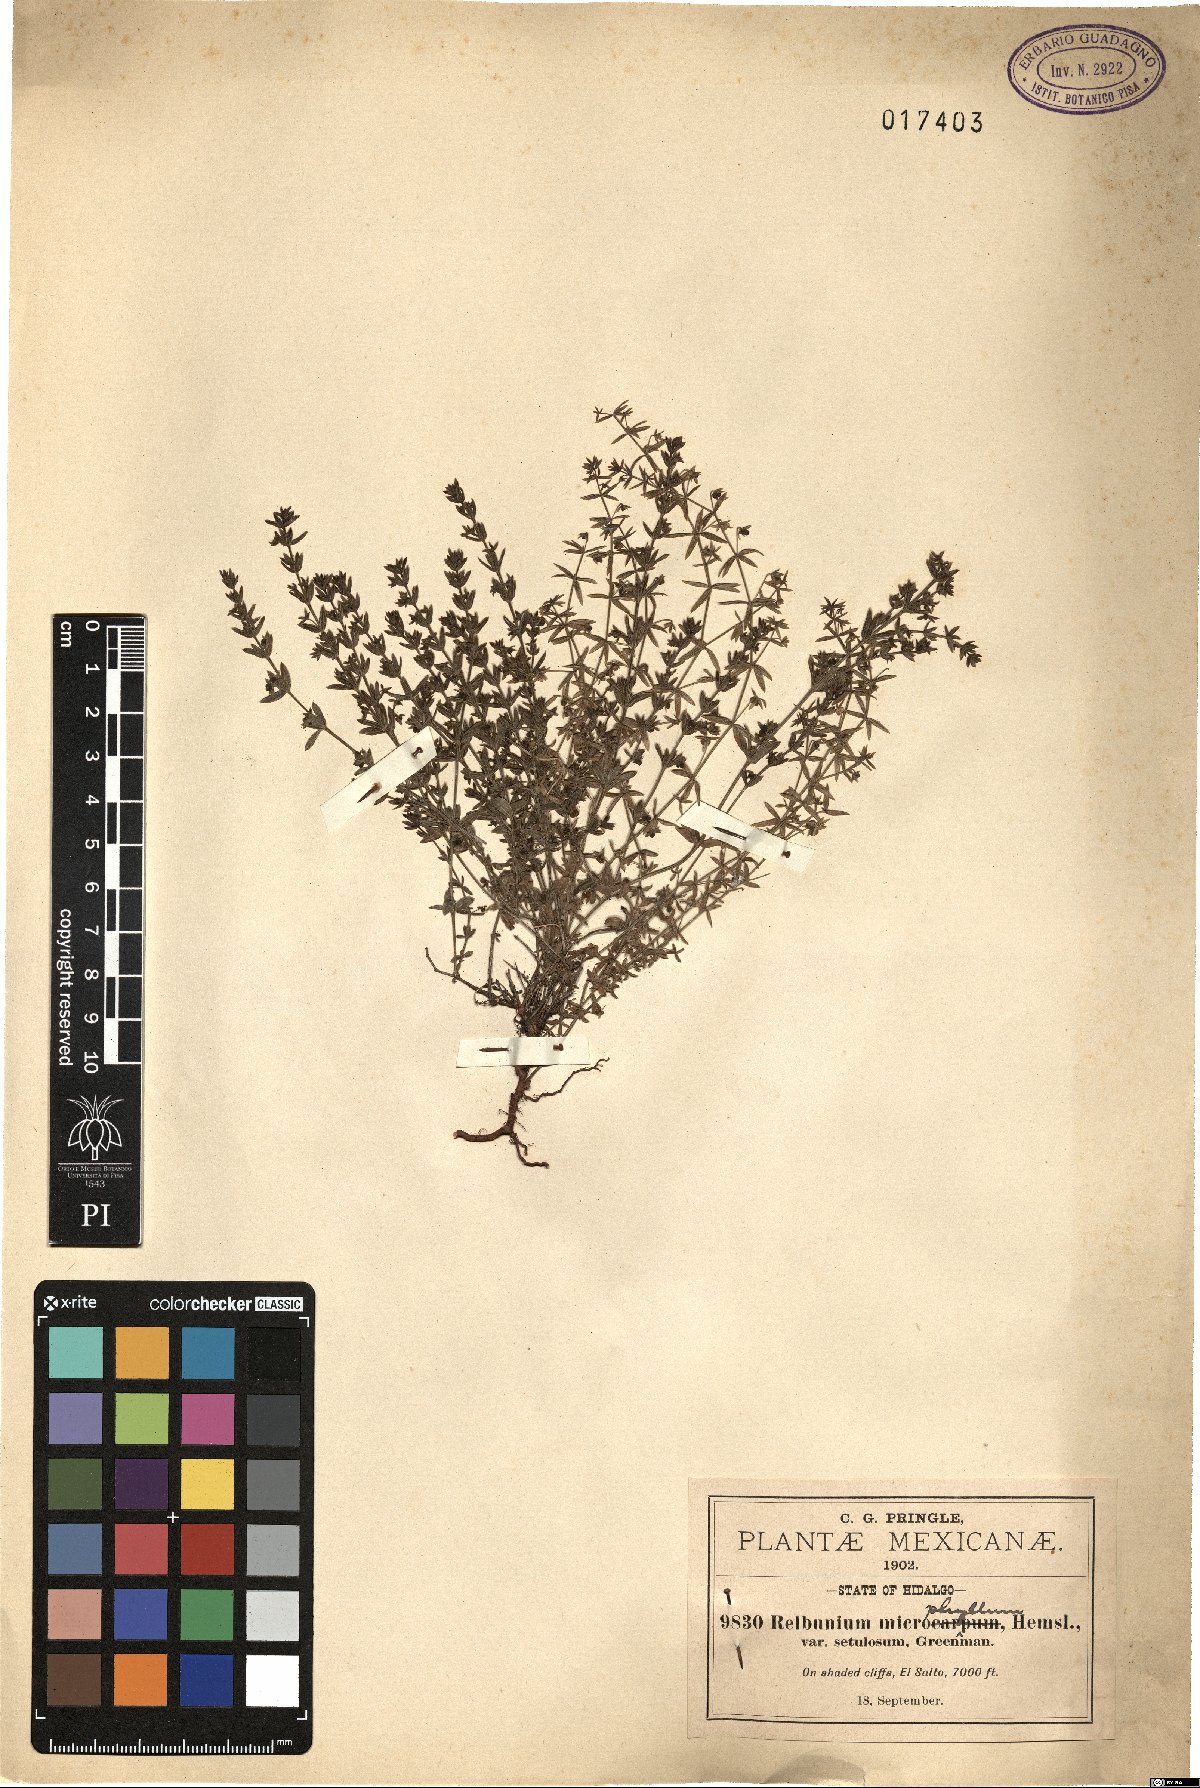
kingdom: Plantae
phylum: Tracheophyta
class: Magnoliopsida
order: Gentianales
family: Rubiaceae
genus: Galium
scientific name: Galium microphyllum
